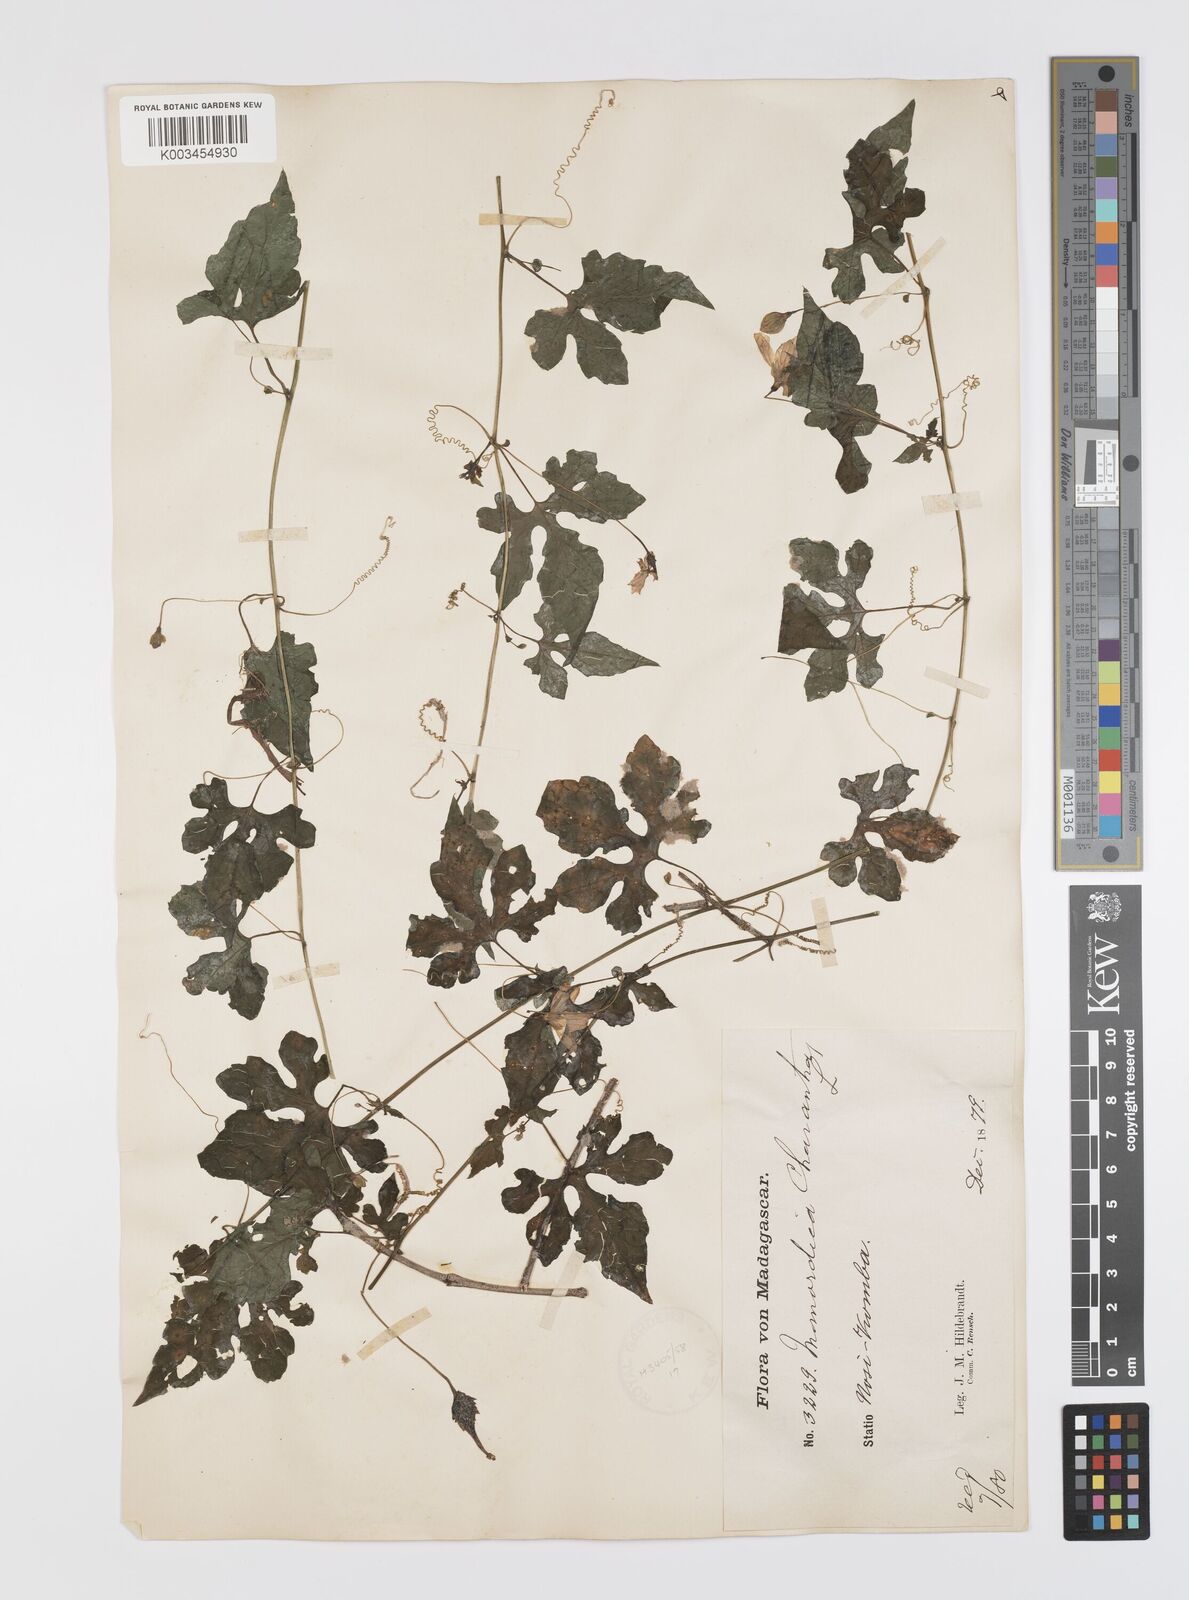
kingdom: Plantae
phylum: Tracheophyta
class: Magnoliopsida
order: Cucurbitales
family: Cucurbitaceae
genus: Momordica
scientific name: Momordica charantia
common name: Balsampear
